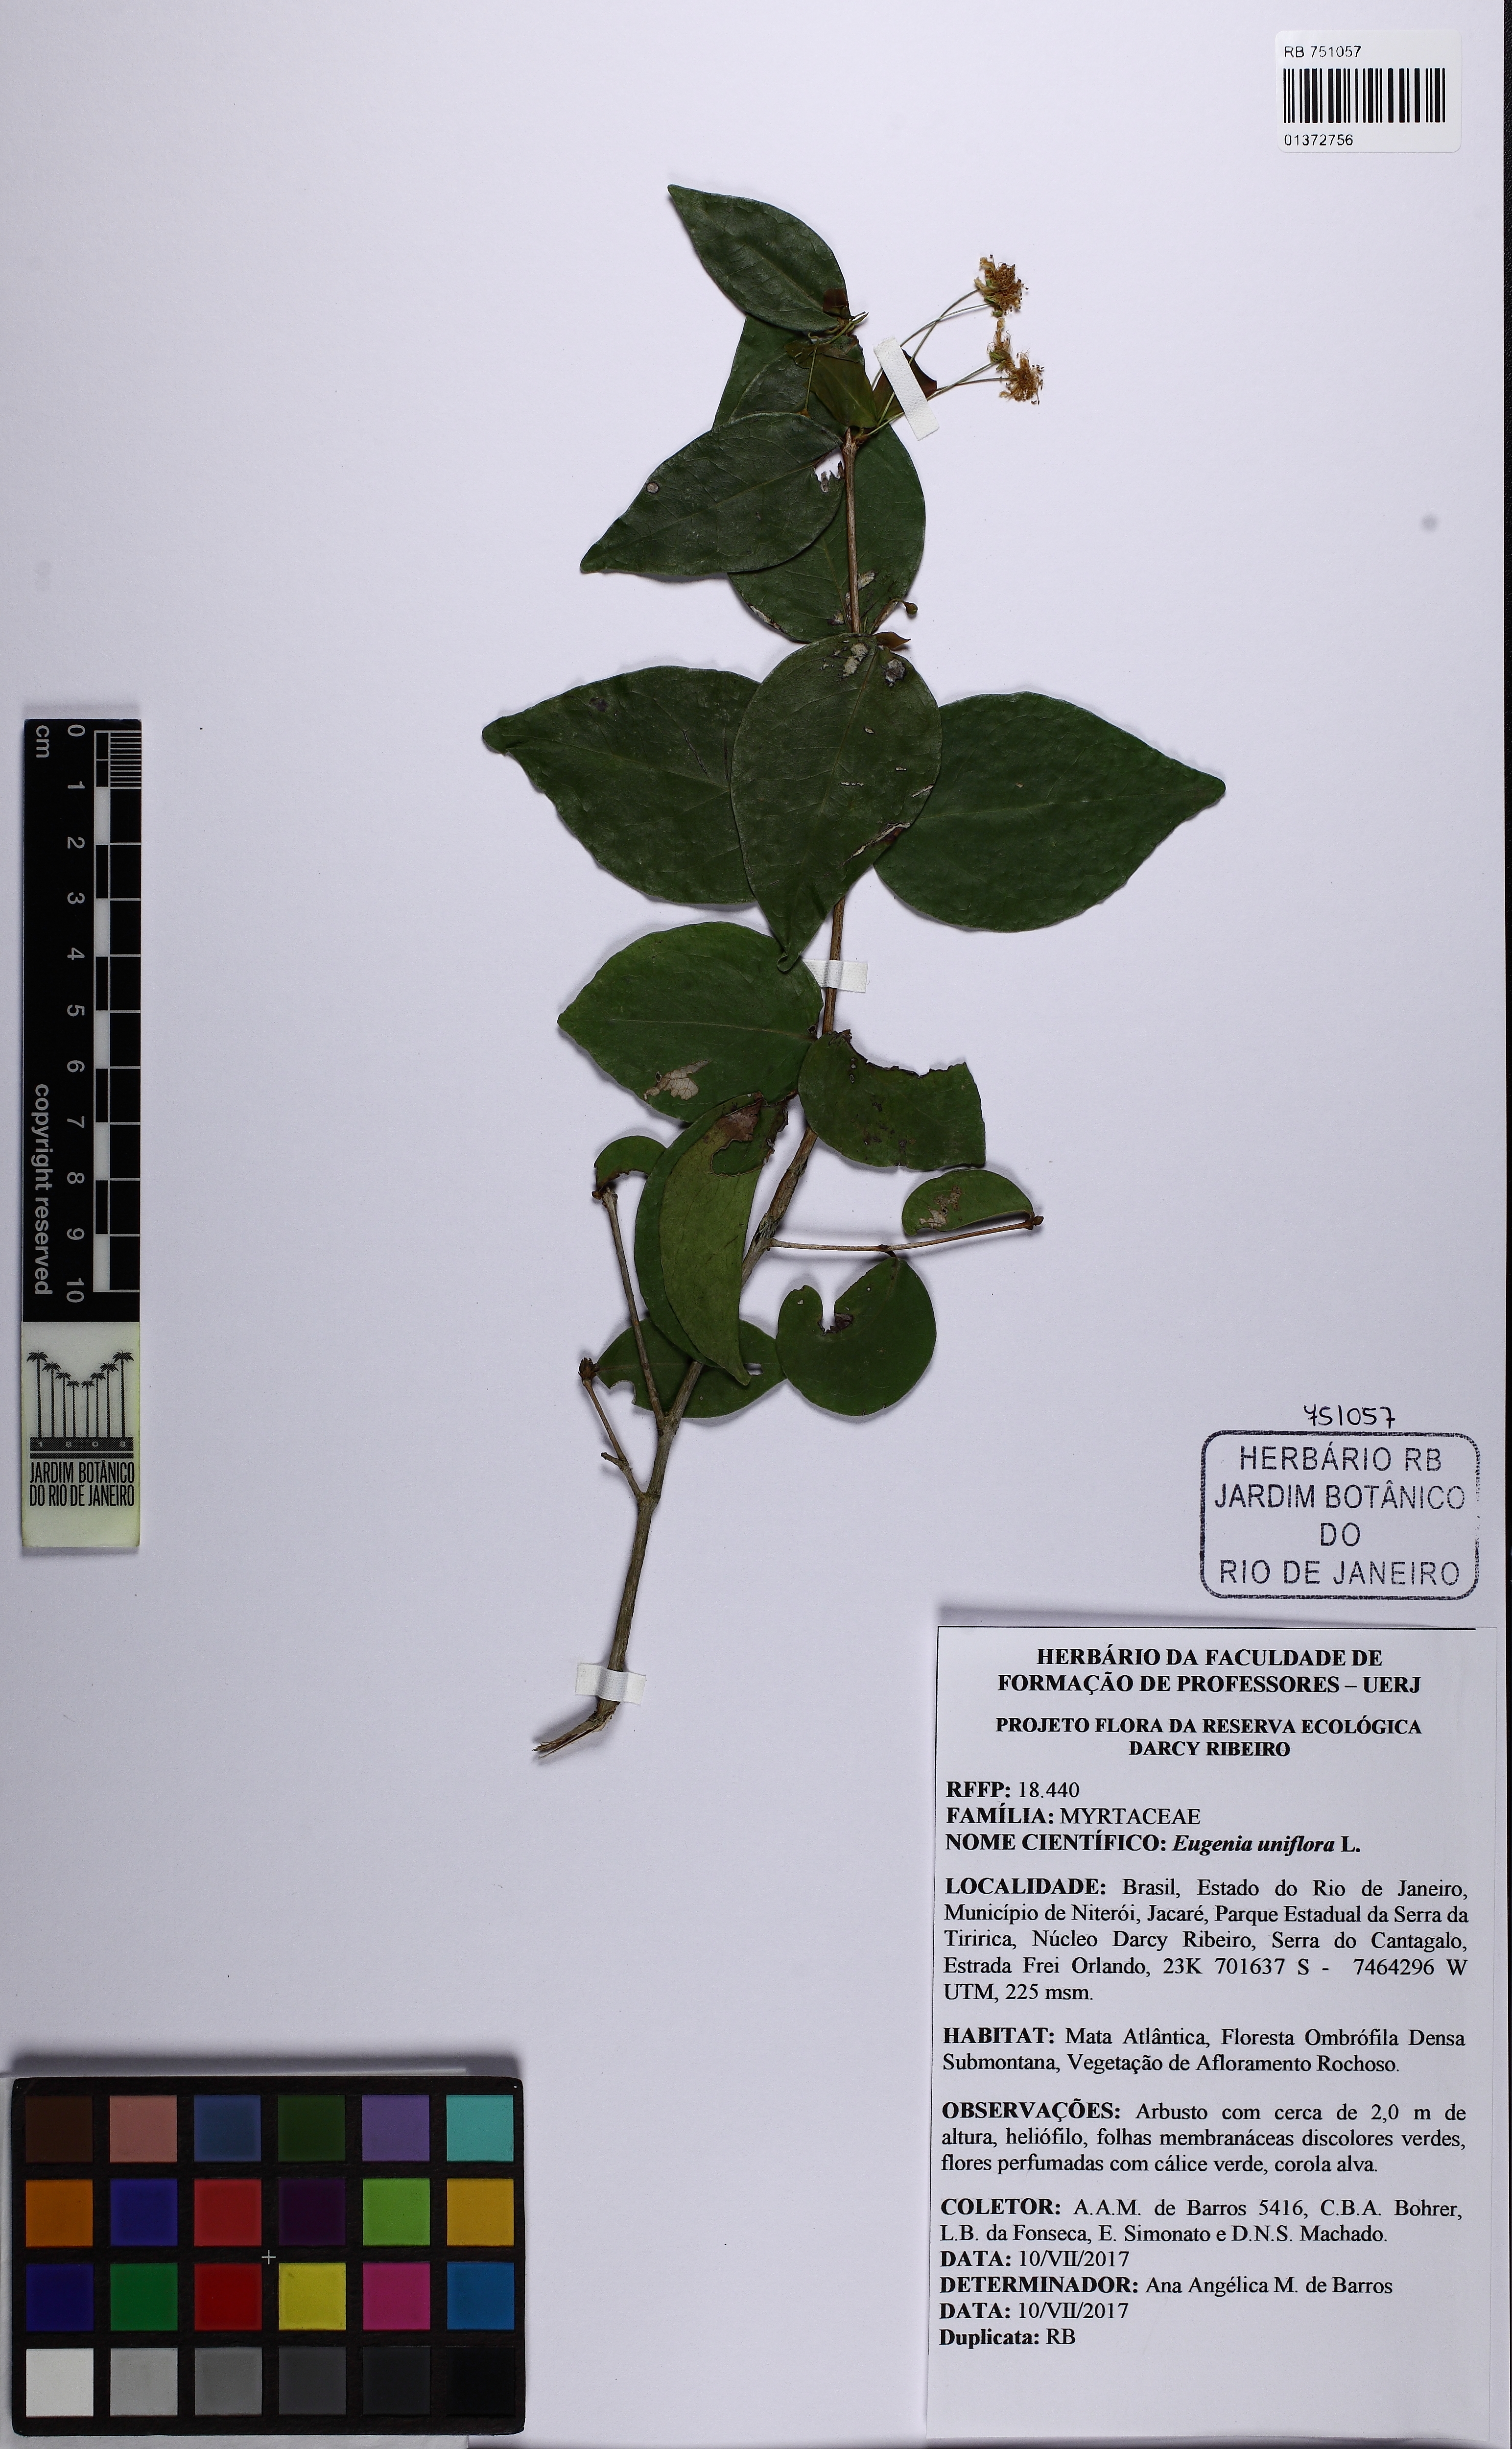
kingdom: Plantae
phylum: Tracheophyta
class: Magnoliopsida
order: Myrtales
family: Myrtaceae
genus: Eugenia
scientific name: Eugenia uniflora
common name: Surinam cherry
